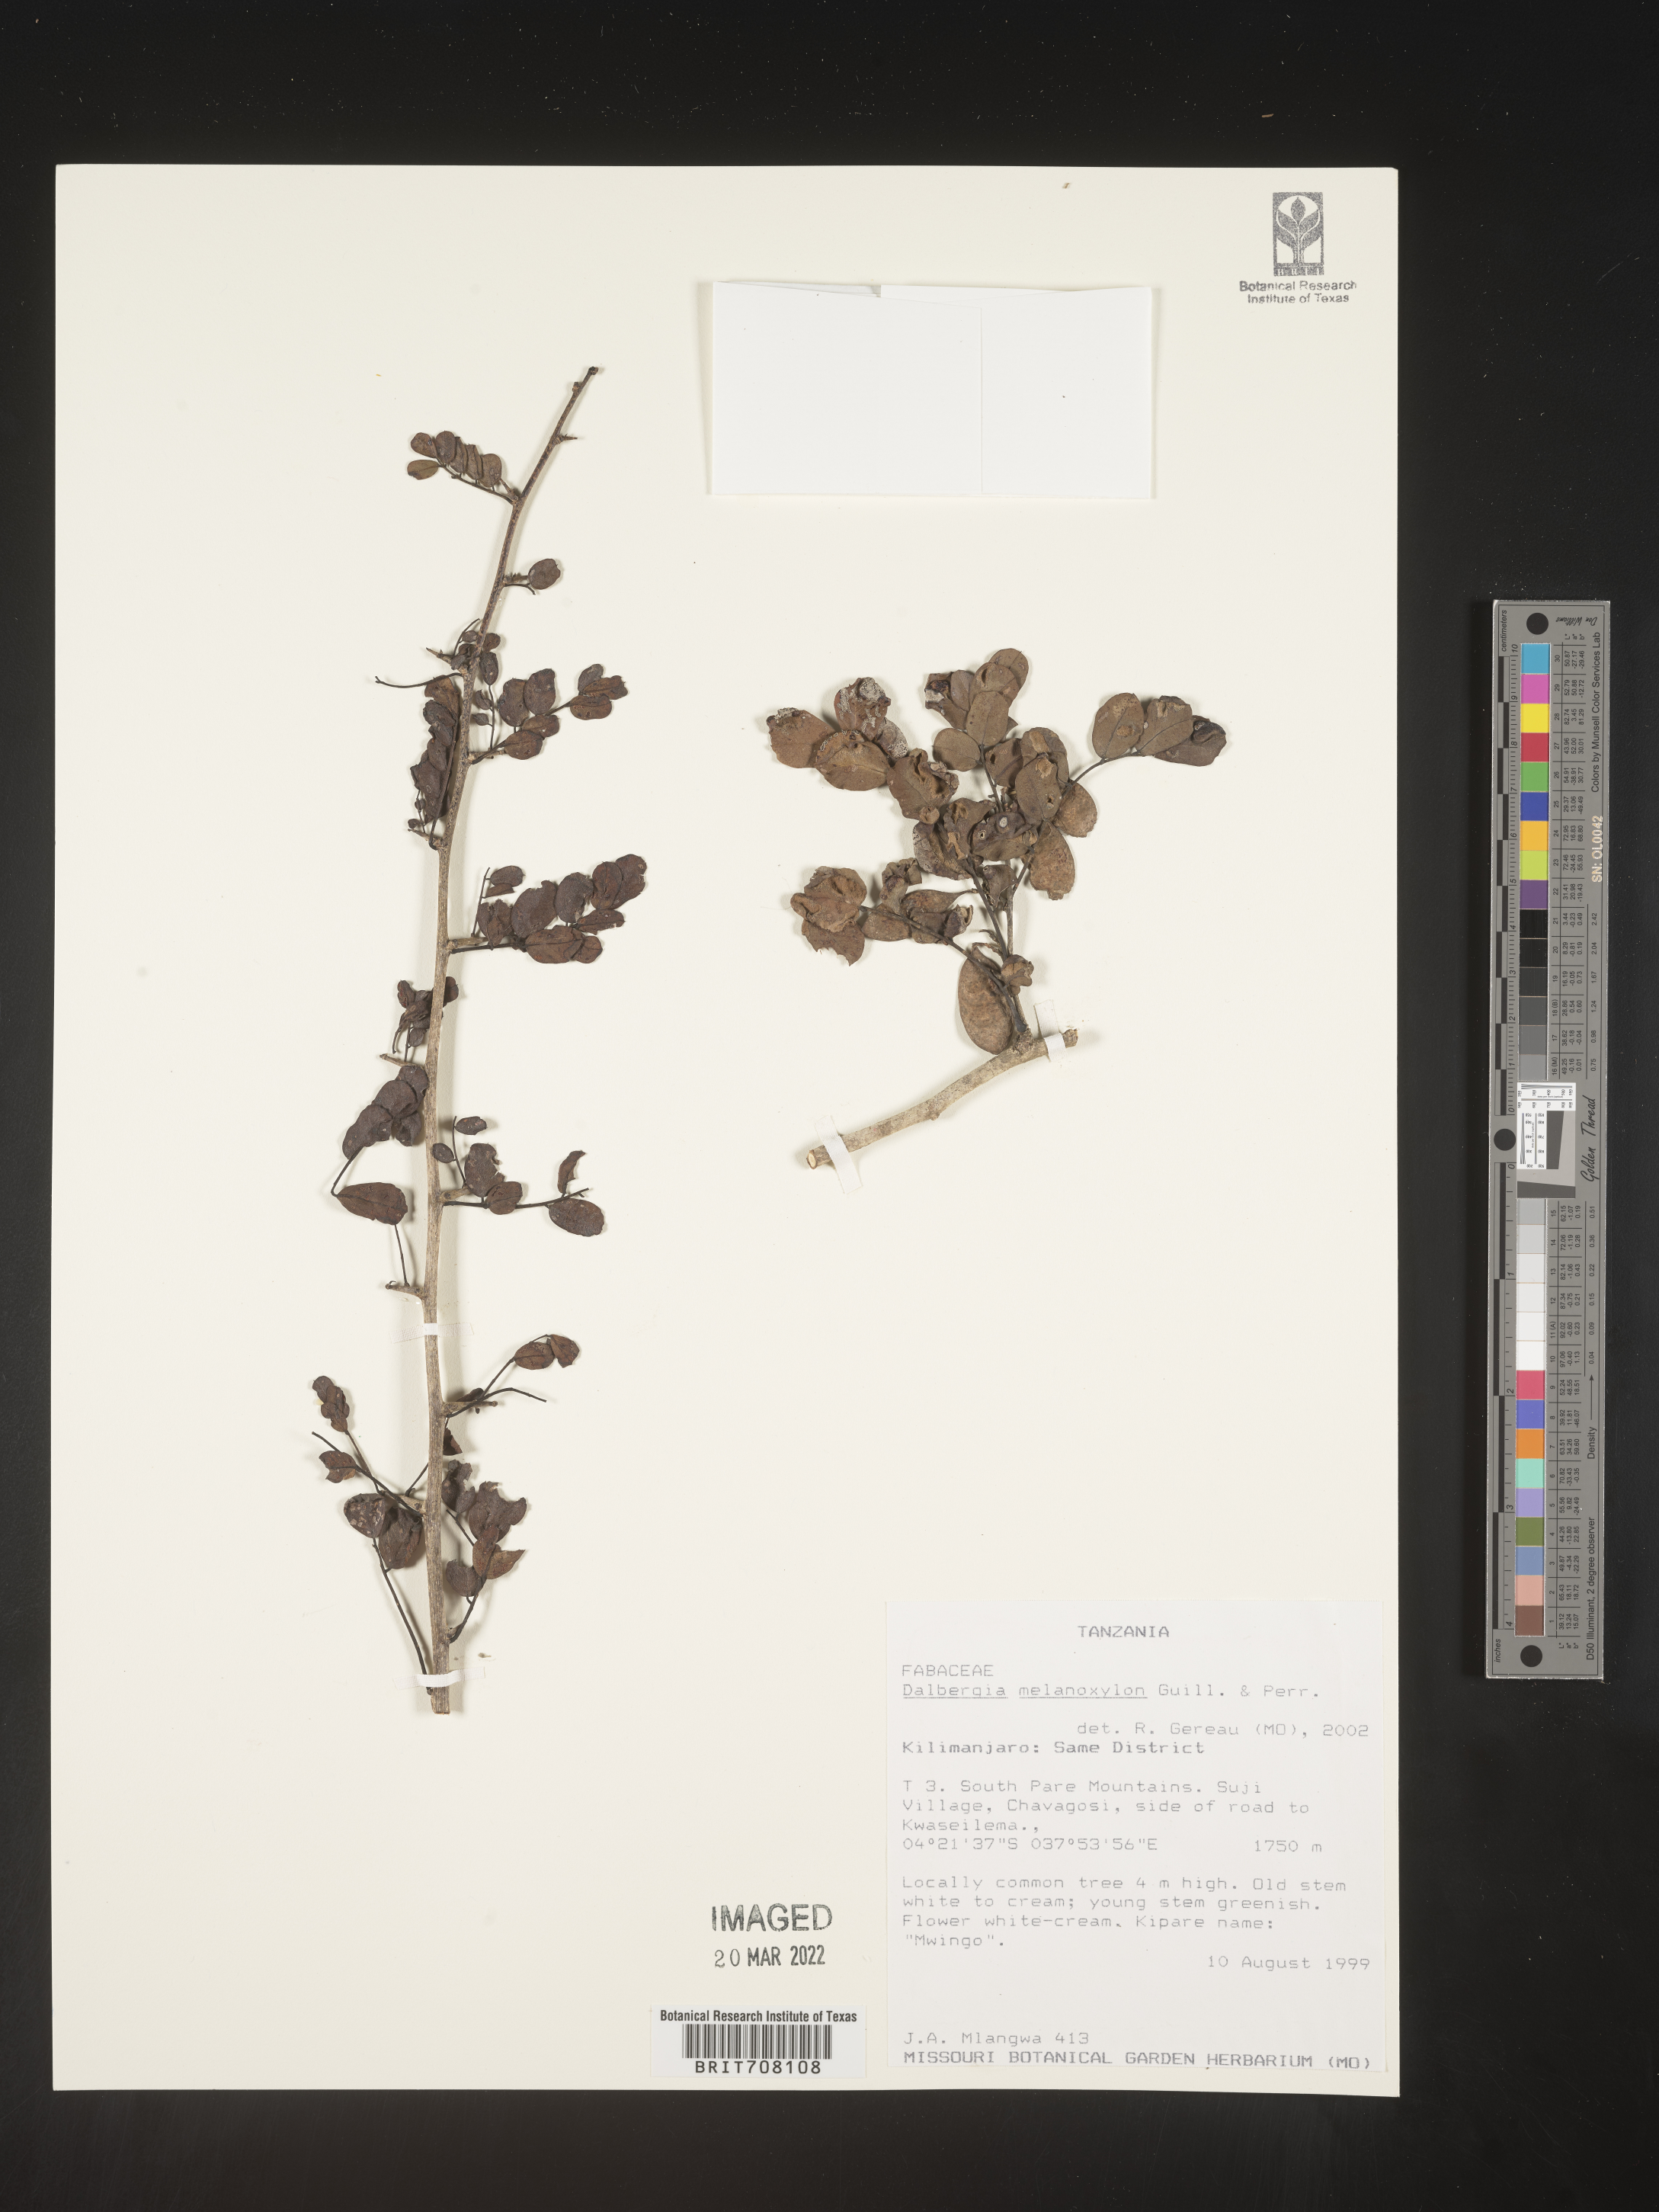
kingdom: Plantae
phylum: Tracheophyta
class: Magnoliopsida
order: Fabales
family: Fabaceae
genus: Dalbergia
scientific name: Dalbergia
